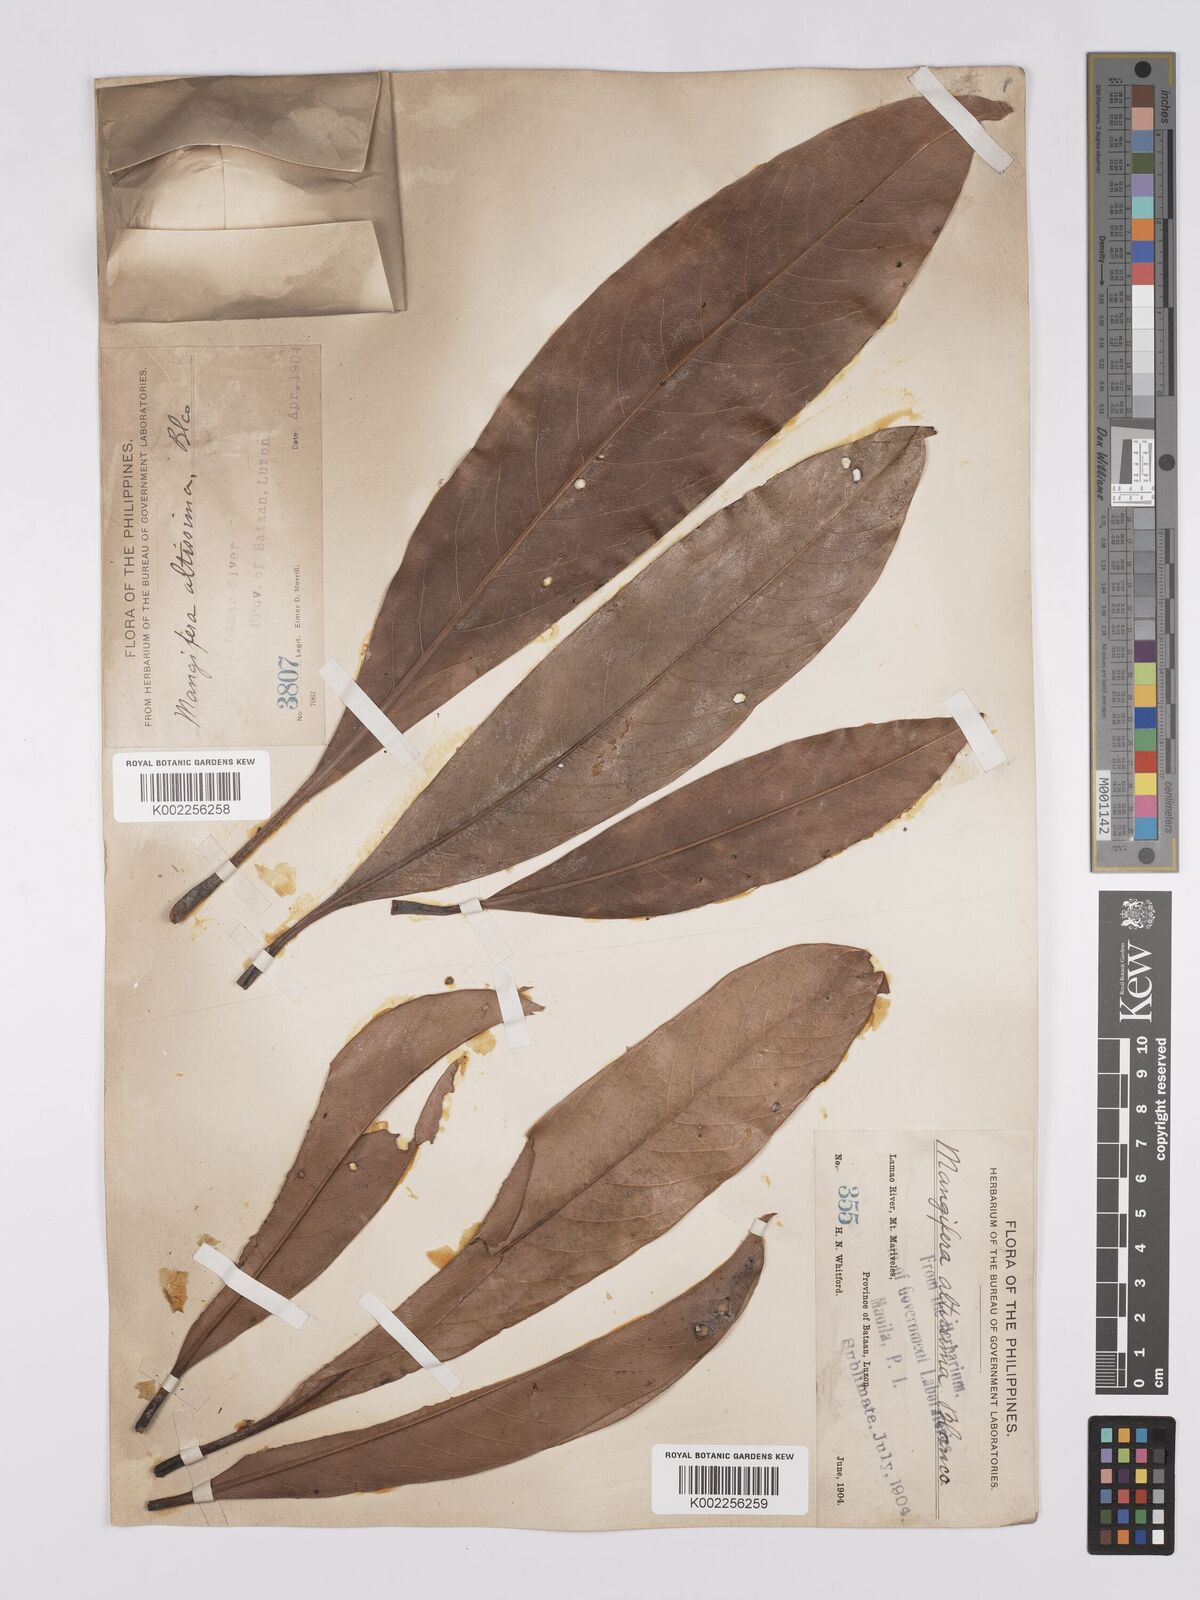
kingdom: Plantae
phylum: Tracheophyta
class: Magnoliopsida
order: Sapindales
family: Anacardiaceae
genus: Mangifera
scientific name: Mangifera altissima
